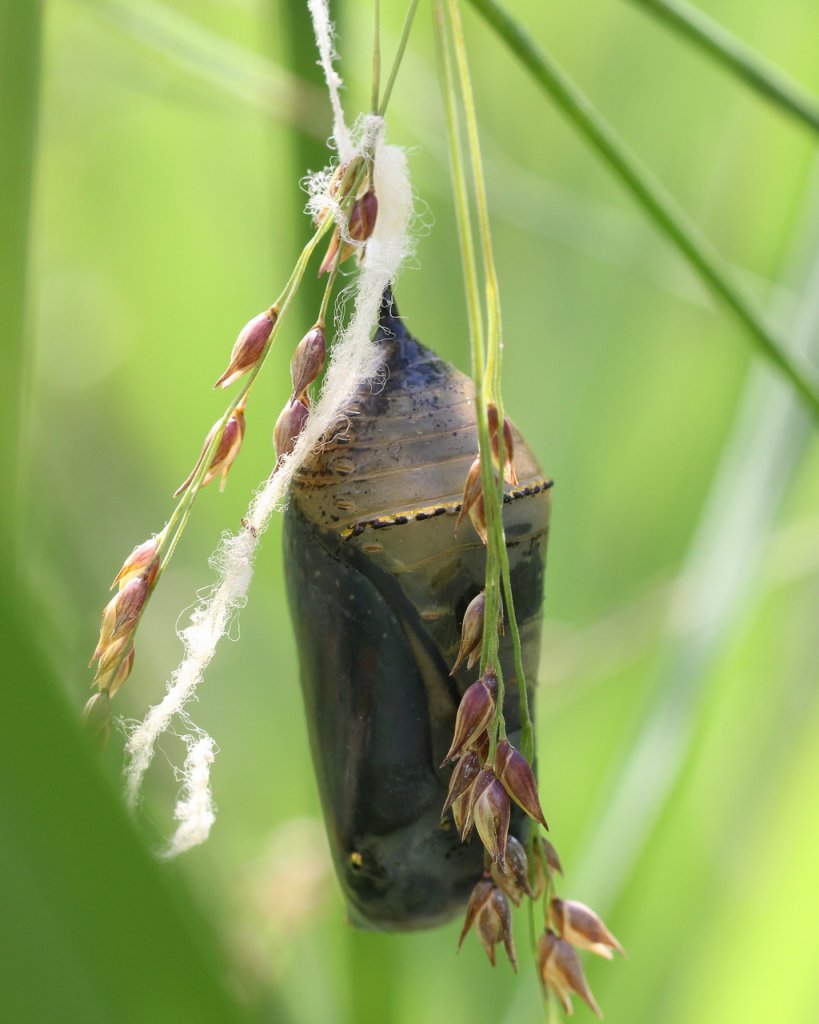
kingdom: Animalia
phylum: Arthropoda
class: Insecta
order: Lepidoptera
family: Nymphalidae
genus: Danaus
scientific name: Danaus plexippus
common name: Monarch
